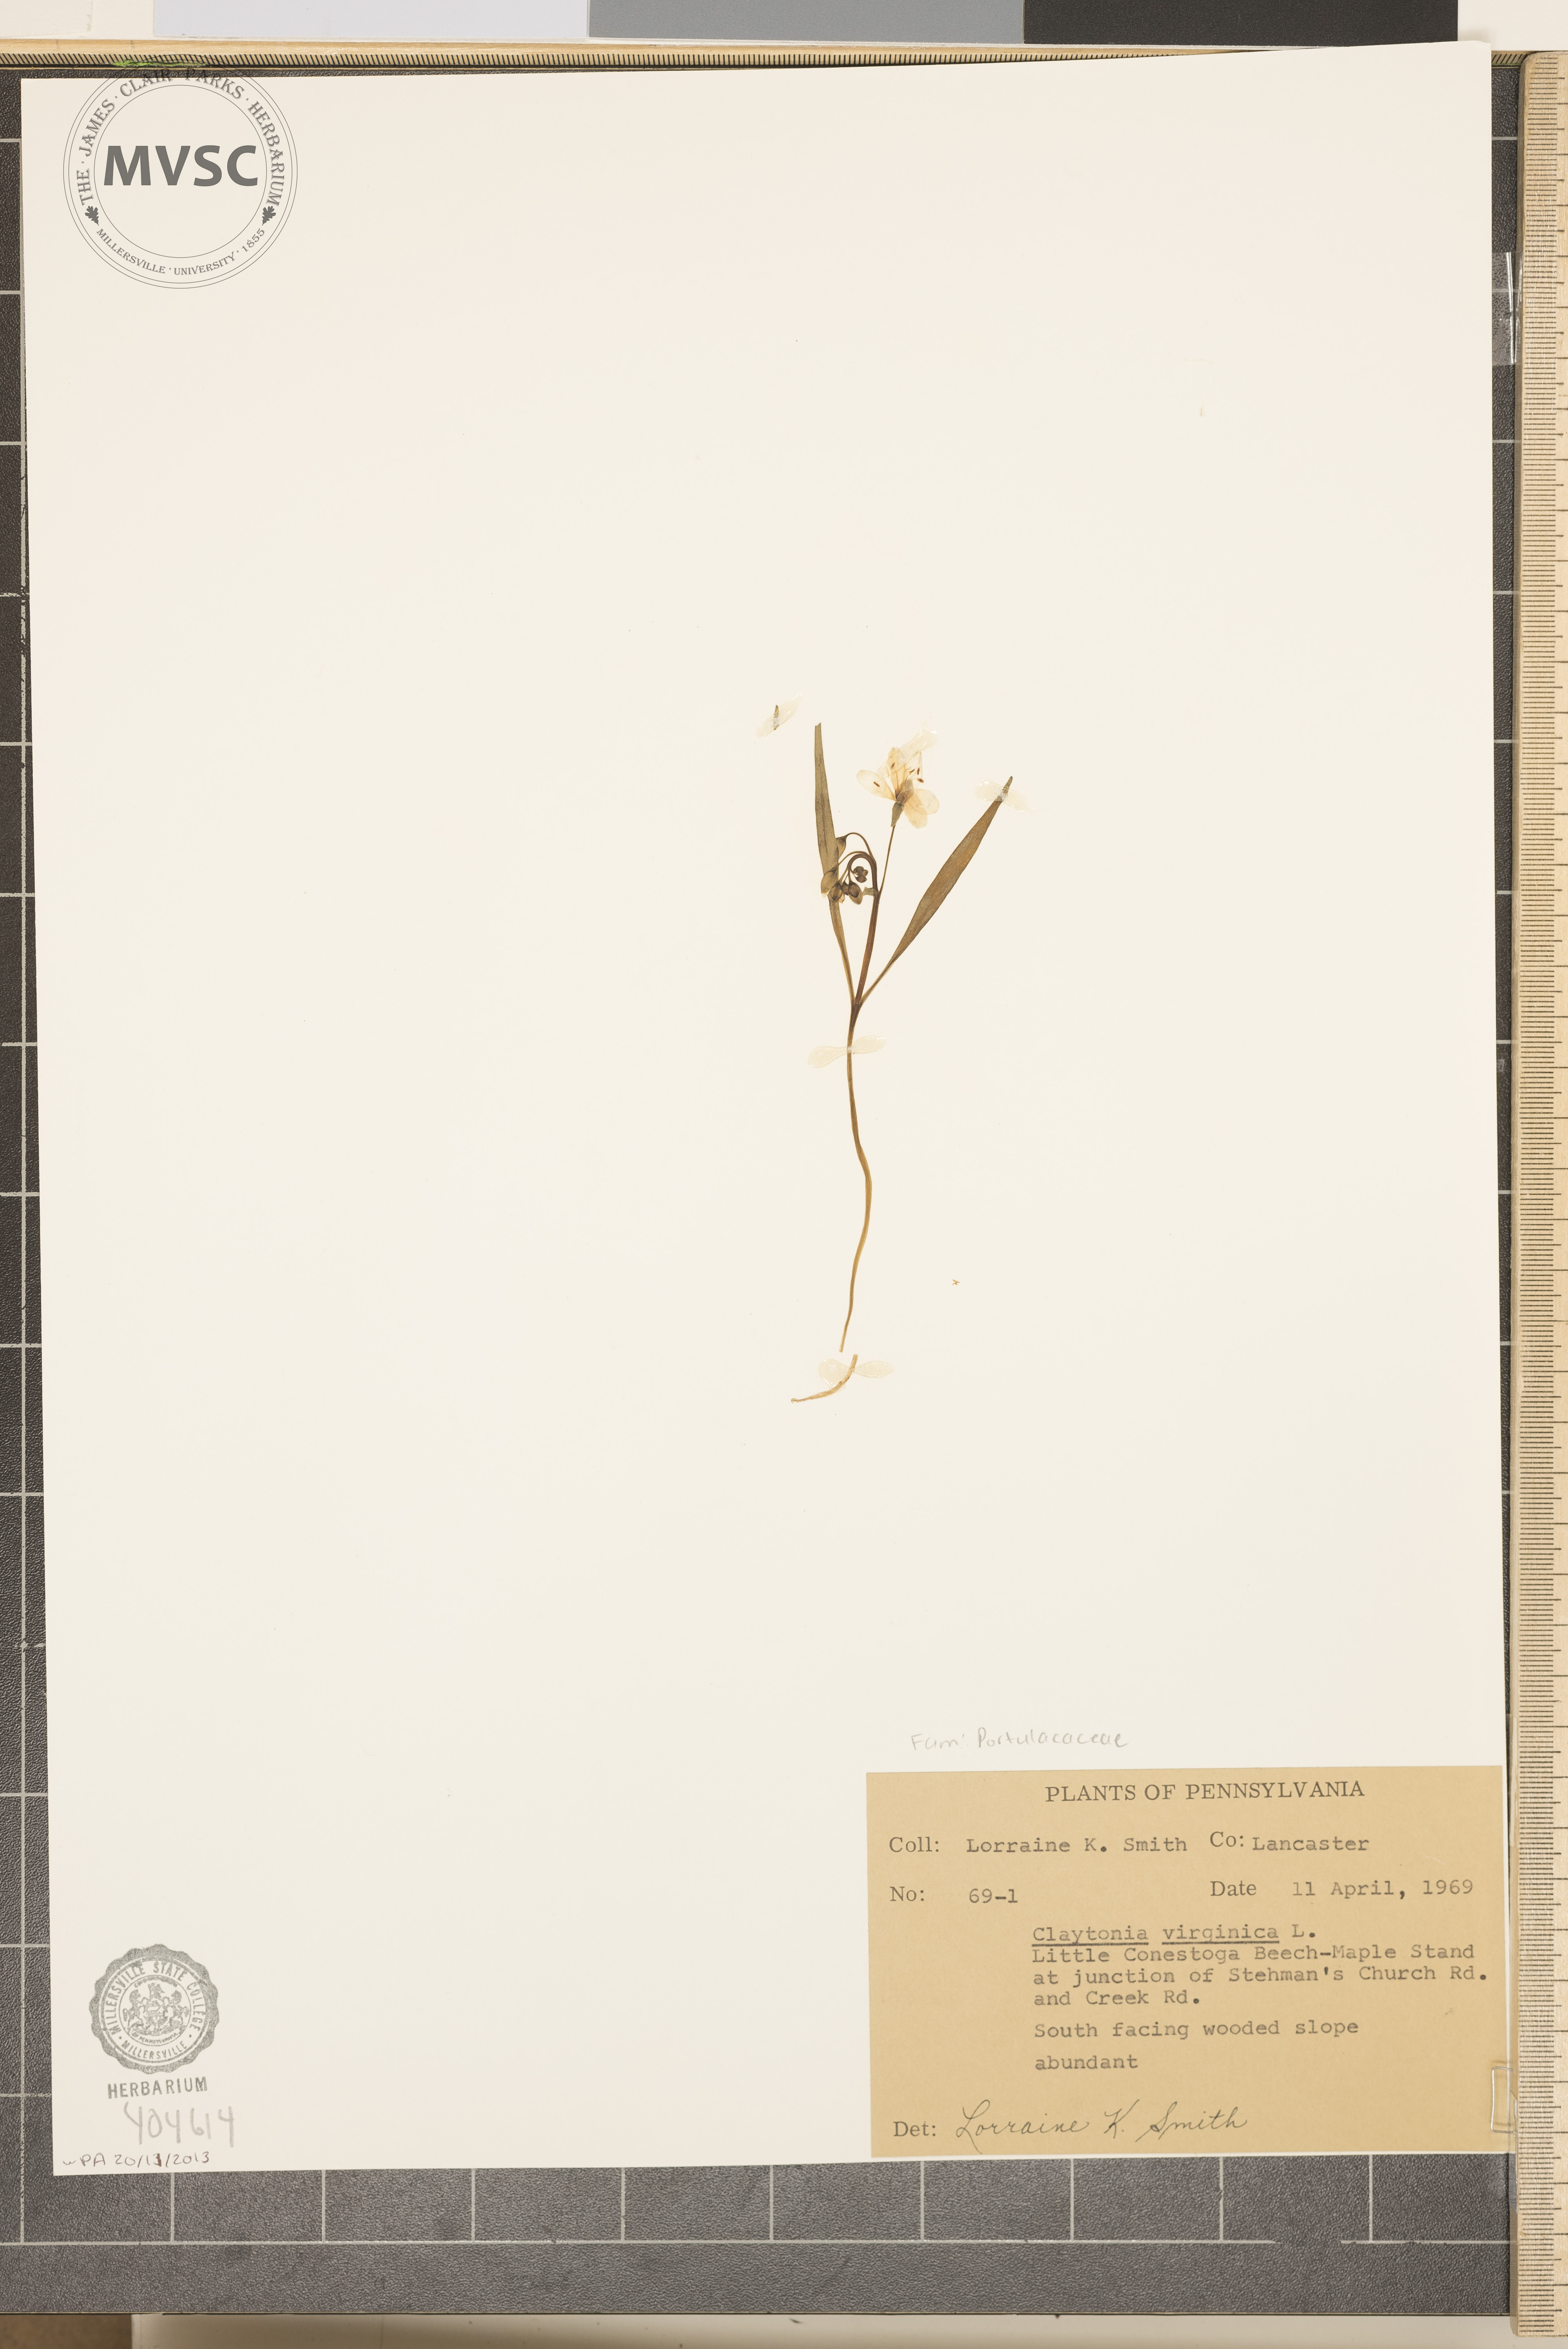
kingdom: Plantae
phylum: Tracheophyta
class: Magnoliopsida
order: Caryophyllales
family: Montiaceae
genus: Claytonia
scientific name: Claytonia virginica
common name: Virginia springbeauty
